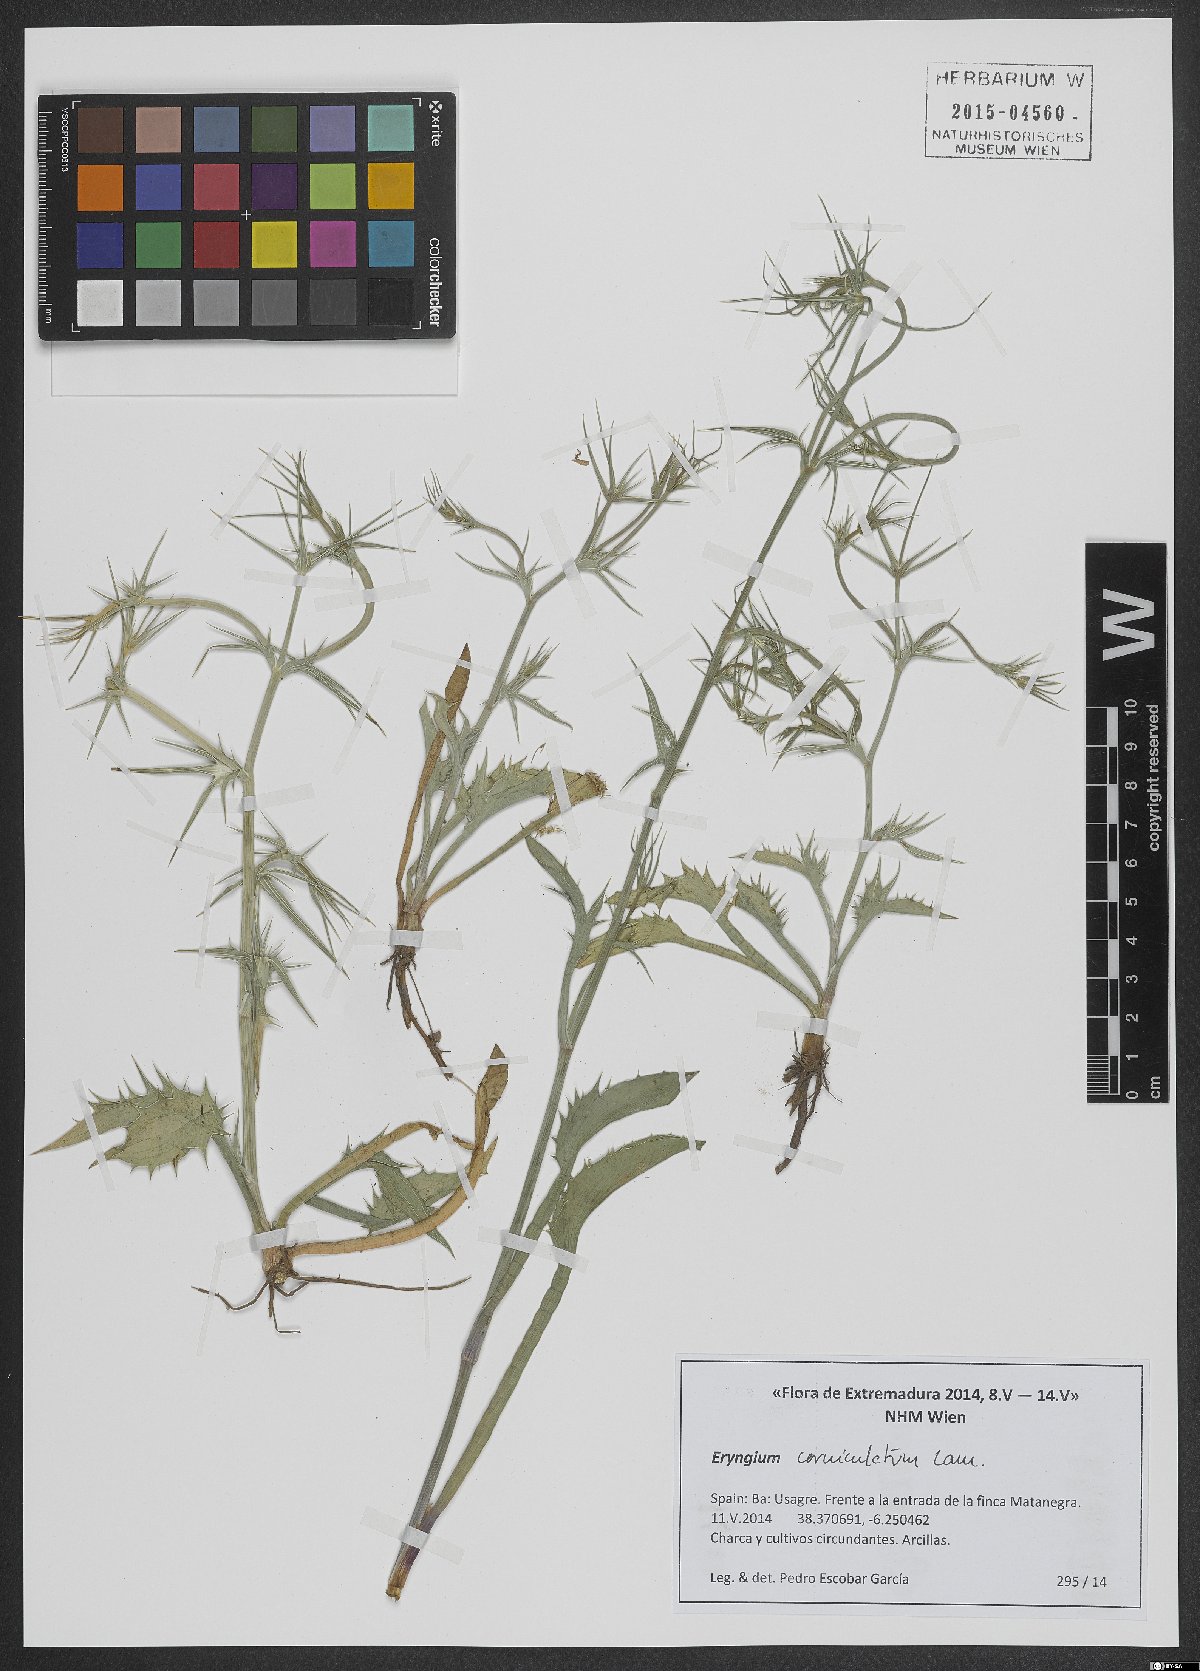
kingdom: Plantae
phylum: Tracheophyta
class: Magnoliopsida
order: Apiales
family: Apiaceae
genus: Eryngium
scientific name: Eryngium corniculatum
